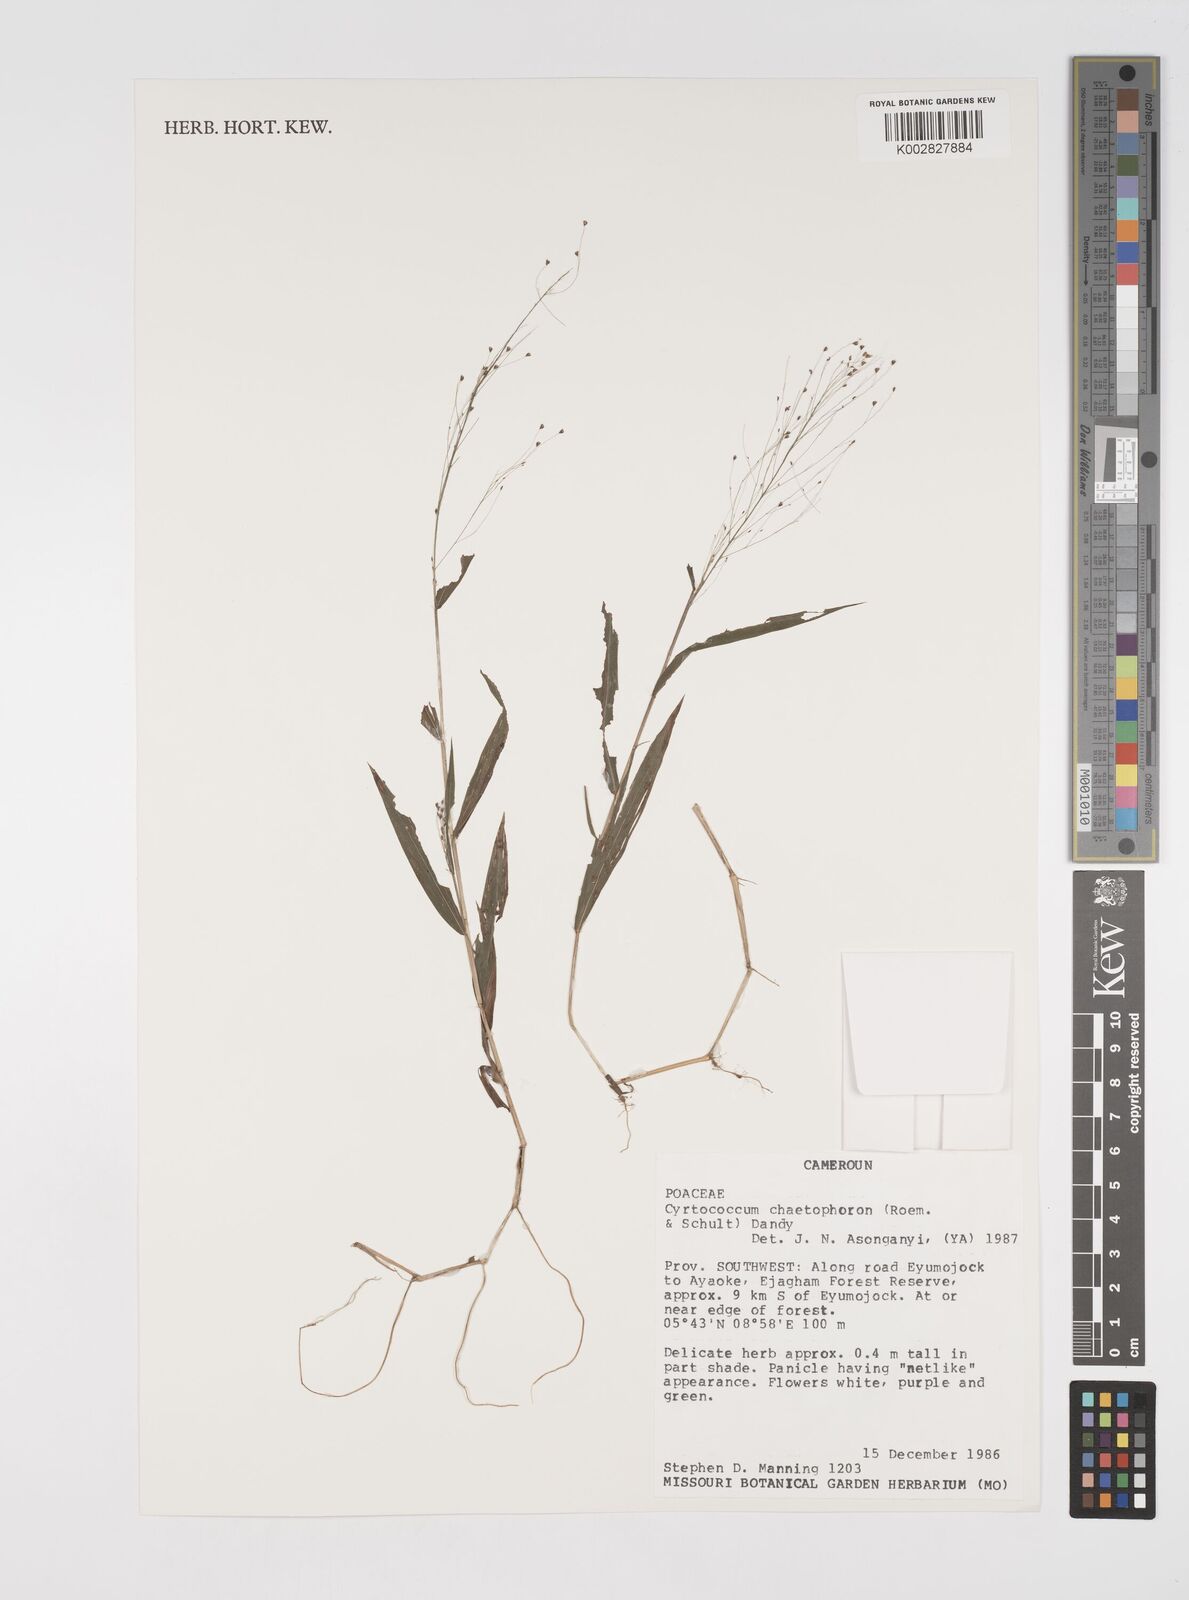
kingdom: Plantae
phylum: Tracheophyta
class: Liliopsida
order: Poales
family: Poaceae
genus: Cyrtococcum
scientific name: Cyrtococcum chaetophoron
